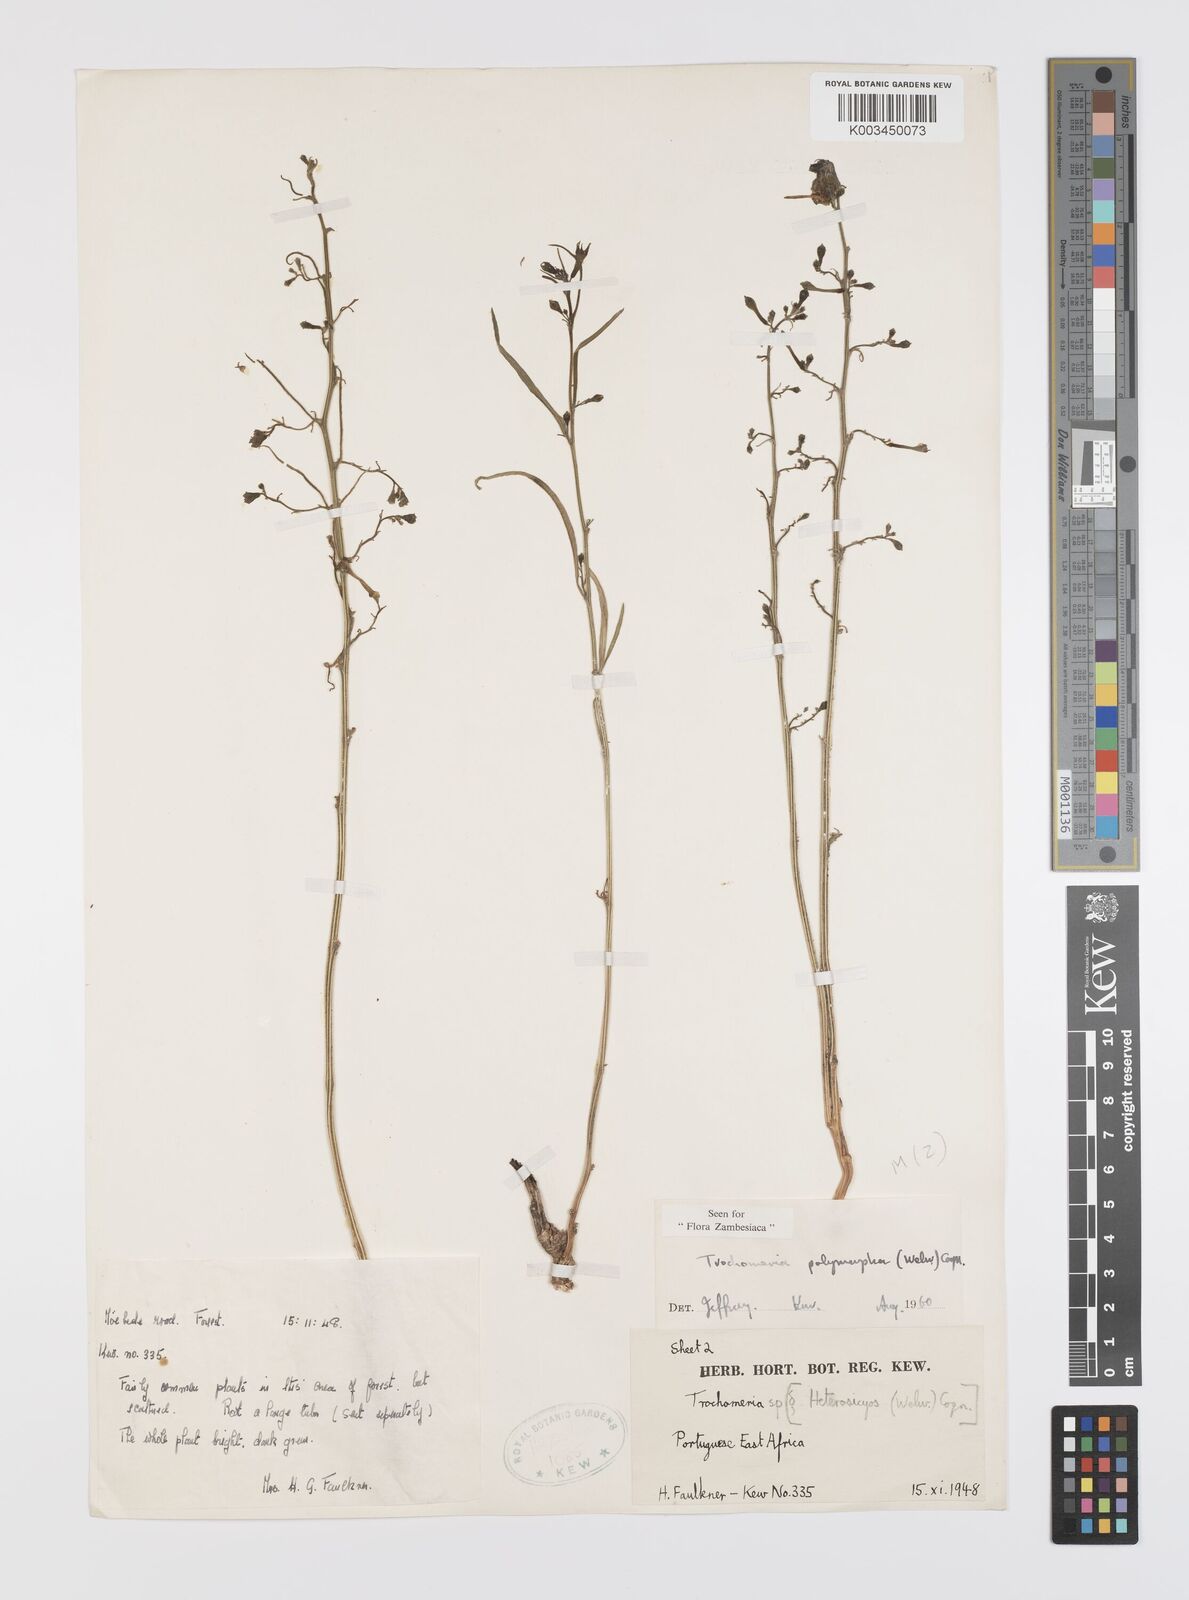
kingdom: Plantae
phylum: Tracheophyta
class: Magnoliopsida
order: Cucurbitales
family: Cucurbitaceae
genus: Trochomeria
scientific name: Trochomeria polymorpha
